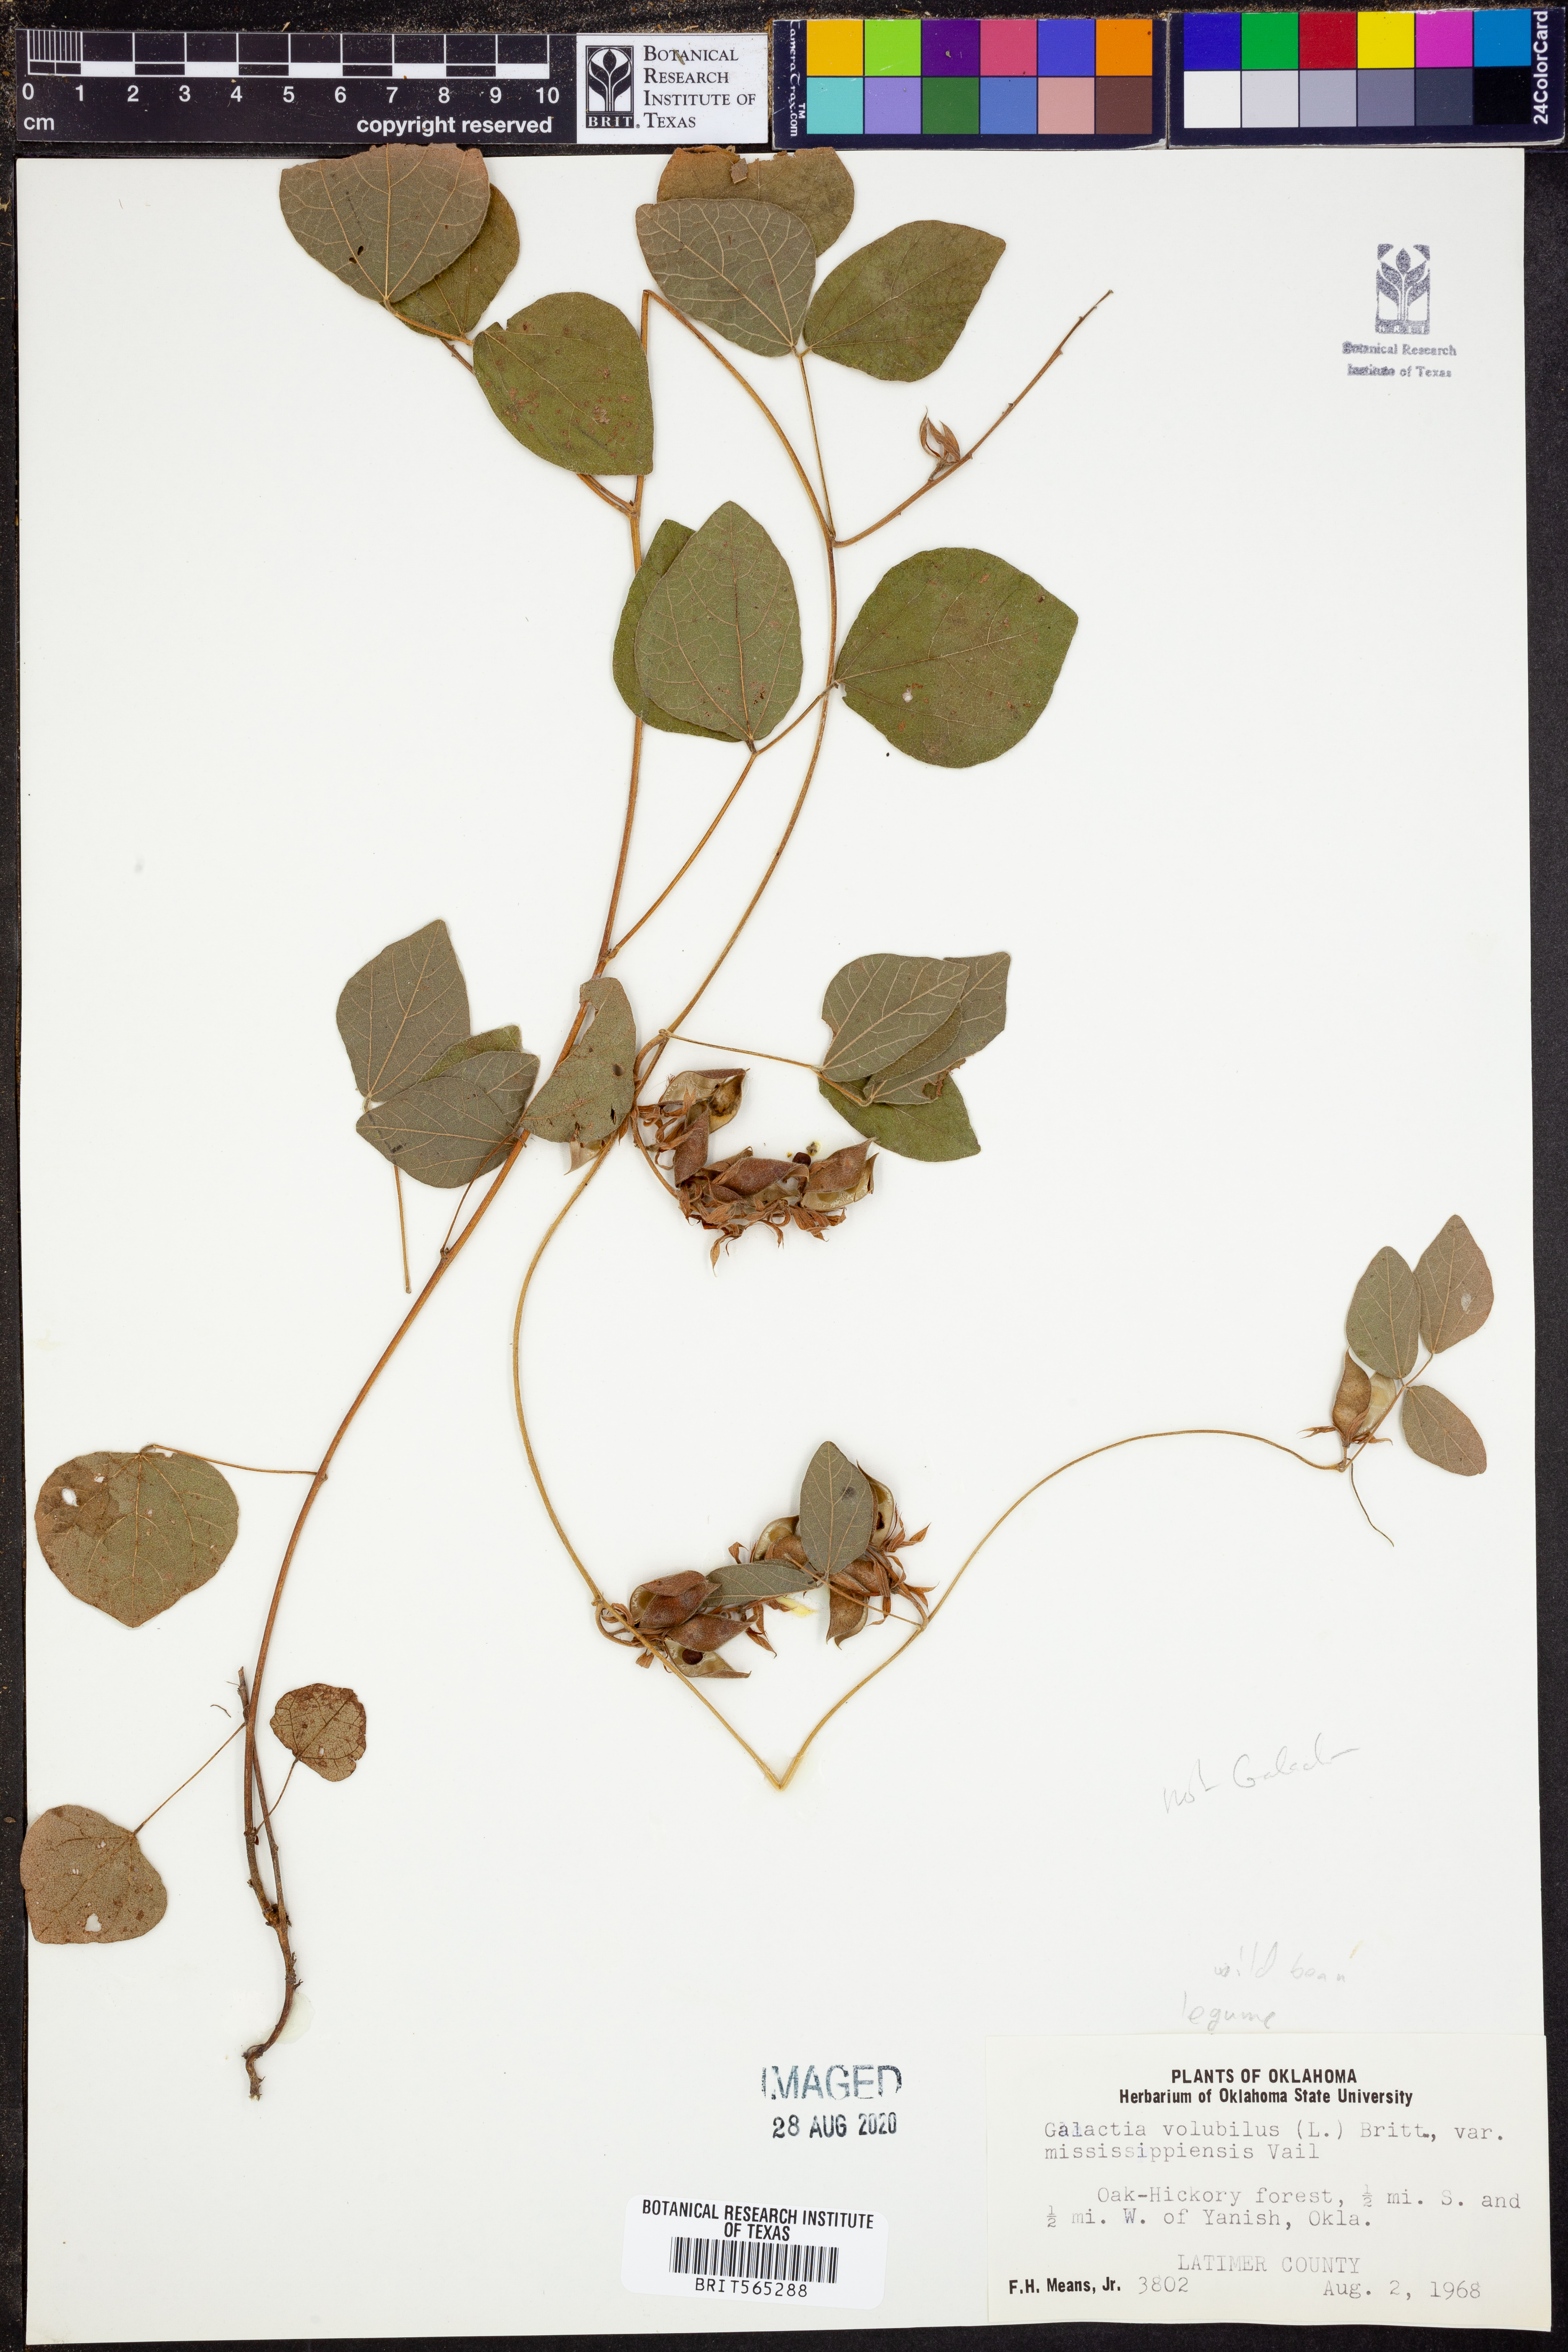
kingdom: Plantae
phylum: Tracheophyta
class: Magnoliopsida
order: Fabales
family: Fabaceae
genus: Galactia
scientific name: Galactia volubilis
